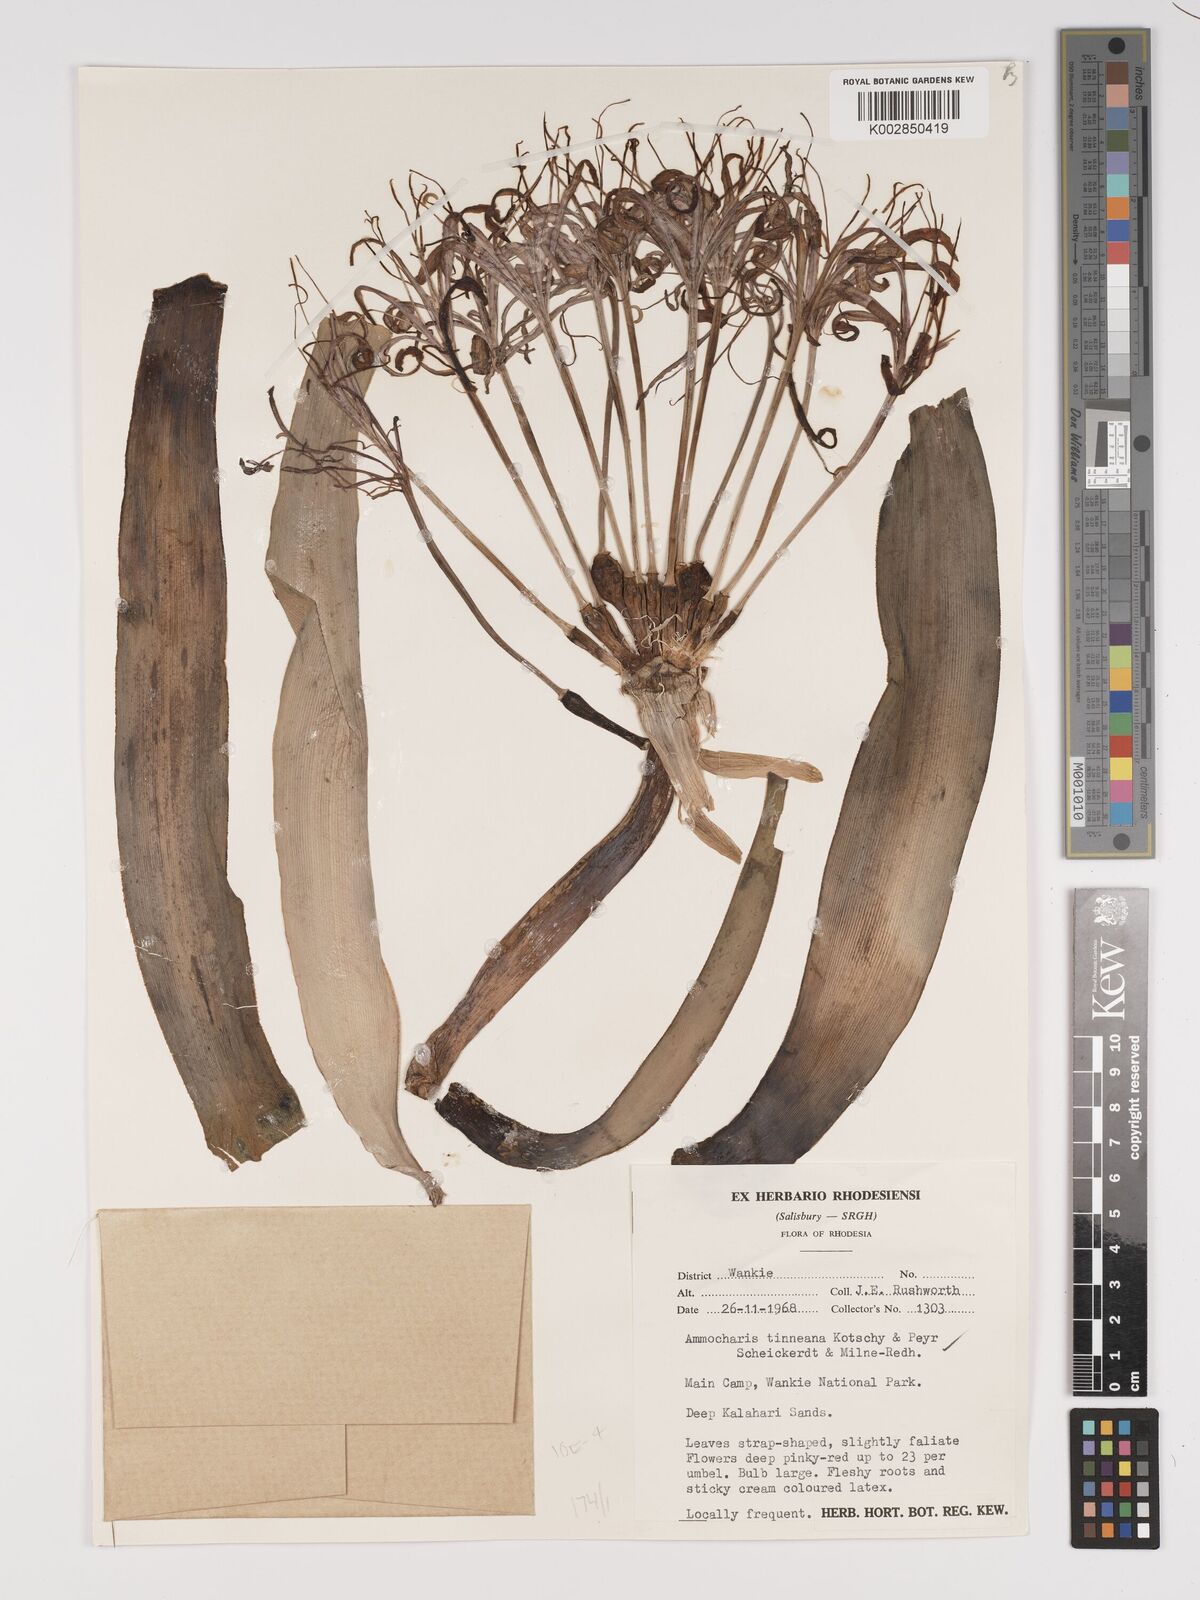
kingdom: Plantae
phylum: Tracheophyta
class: Liliopsida
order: Asparagales
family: Amaryllidaceae
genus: Ammocharis
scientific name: Ammocharis tinneana
